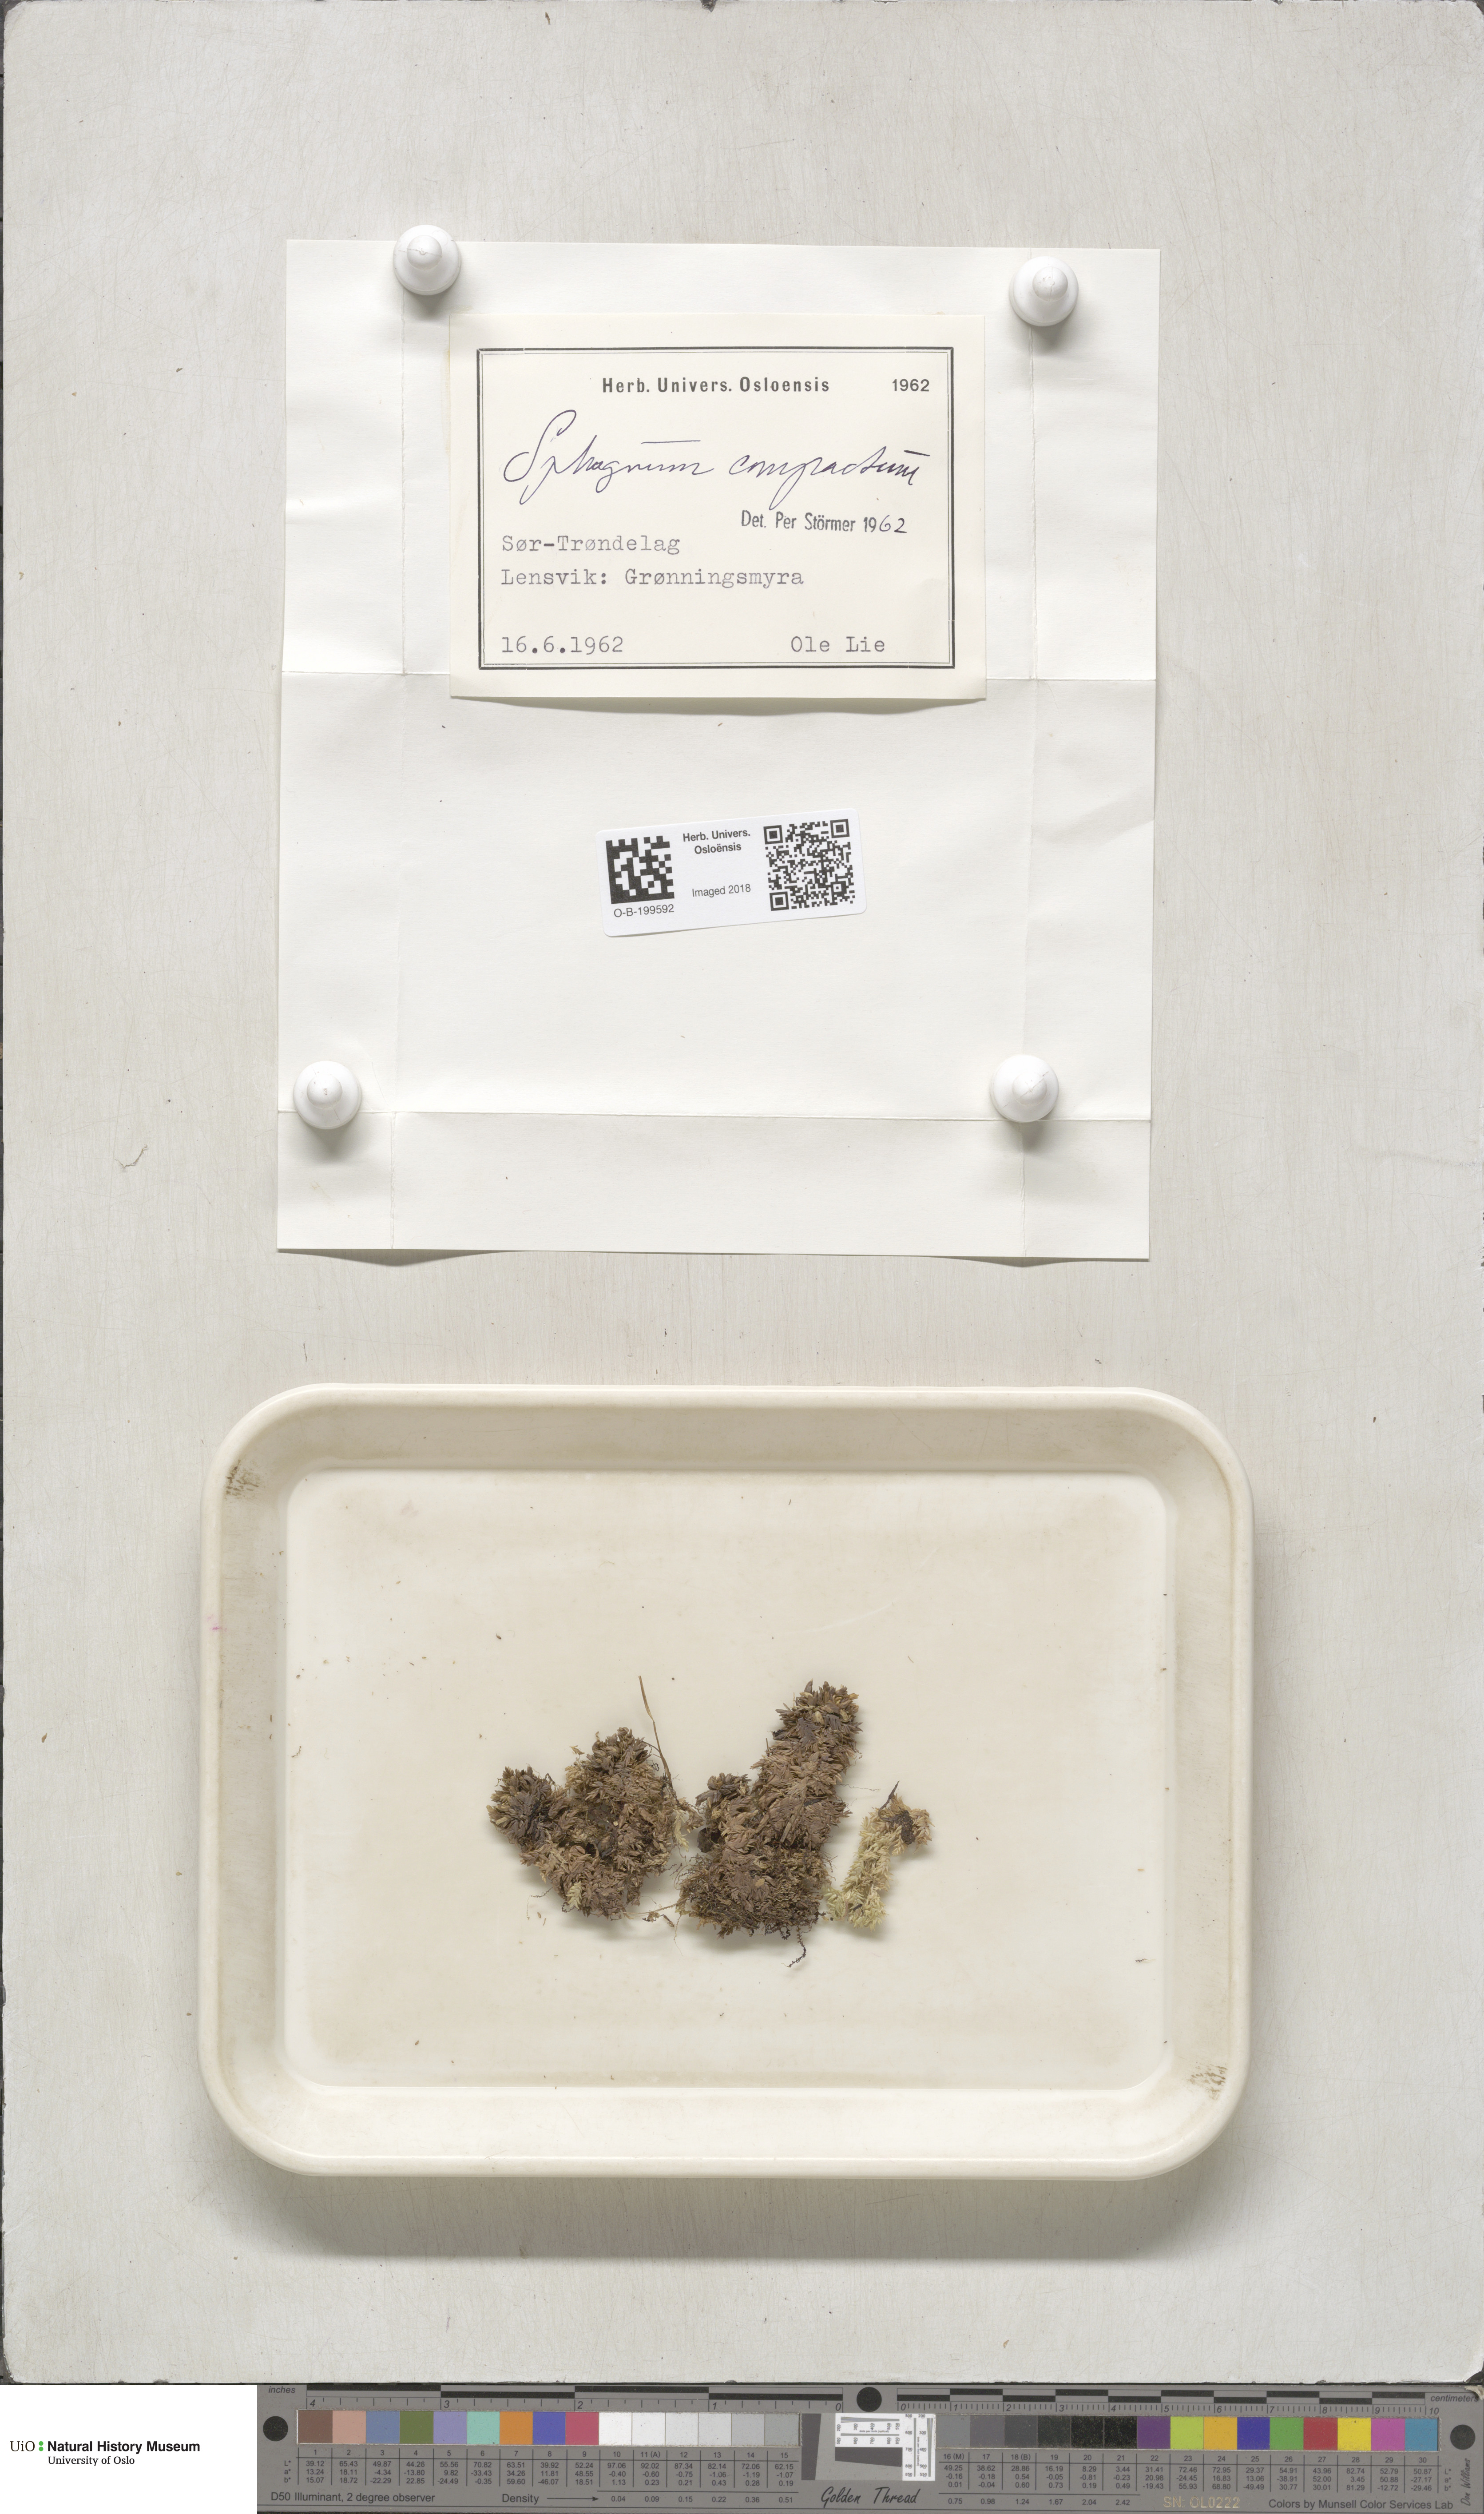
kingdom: Plantae
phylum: Bryophyta
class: Sphagnopsida
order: Sphagnales
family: Sphagnaceae
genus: Sphagnum
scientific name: Sphagnum compactum
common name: Compact peat moss
